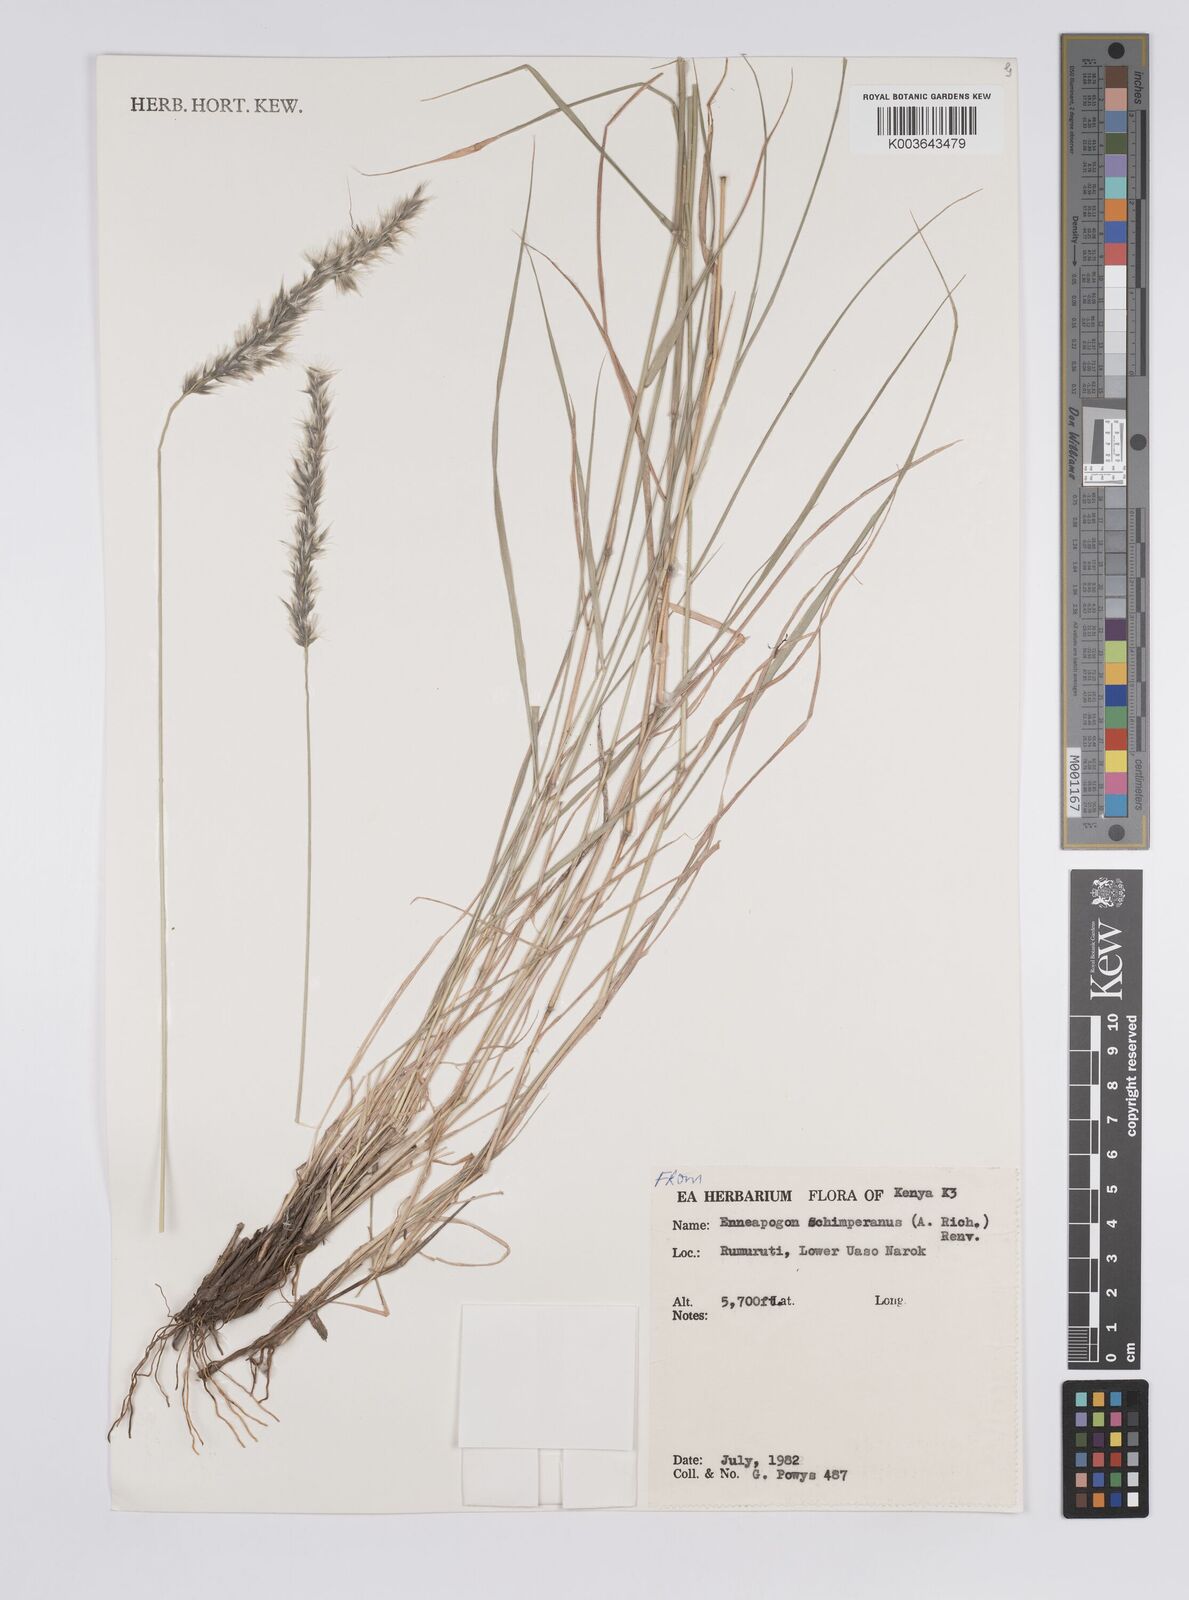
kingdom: Plantae
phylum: Tracheophyta
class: Liliopsida
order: Poales
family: Poaceae
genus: Enneapogon
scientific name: Enneapogon persicus
